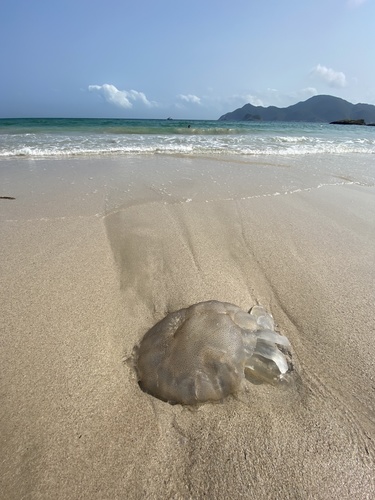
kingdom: Animalia
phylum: Cnidaria
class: Scyphozoa
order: Rhizostomeae
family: Rhizostomatidae
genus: Rhopilema
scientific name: Rhopilema hispidum
